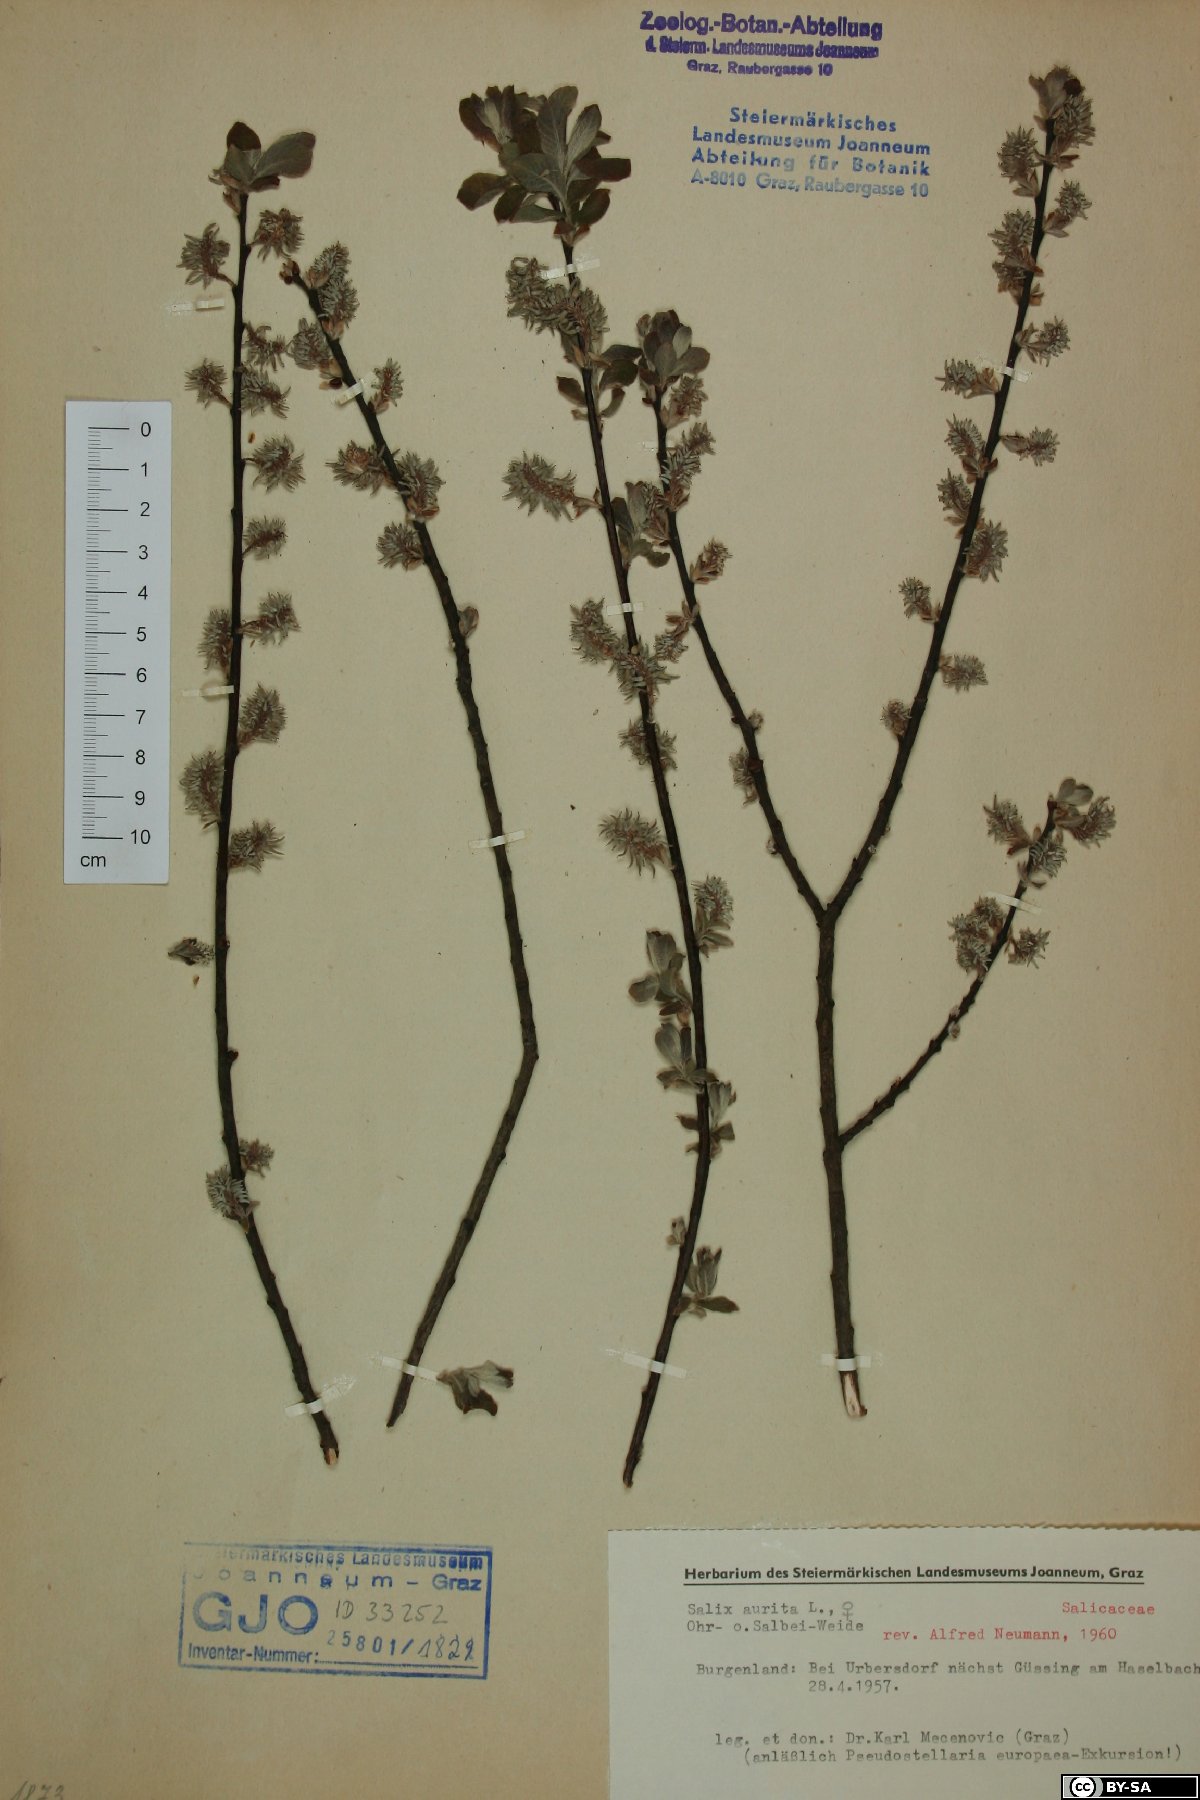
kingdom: Plantae
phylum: Tracheophyta
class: Magnoliopsida
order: Malpighiales
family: Salicaceae
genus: Salix
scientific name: Salix aurita
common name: Eared willow
